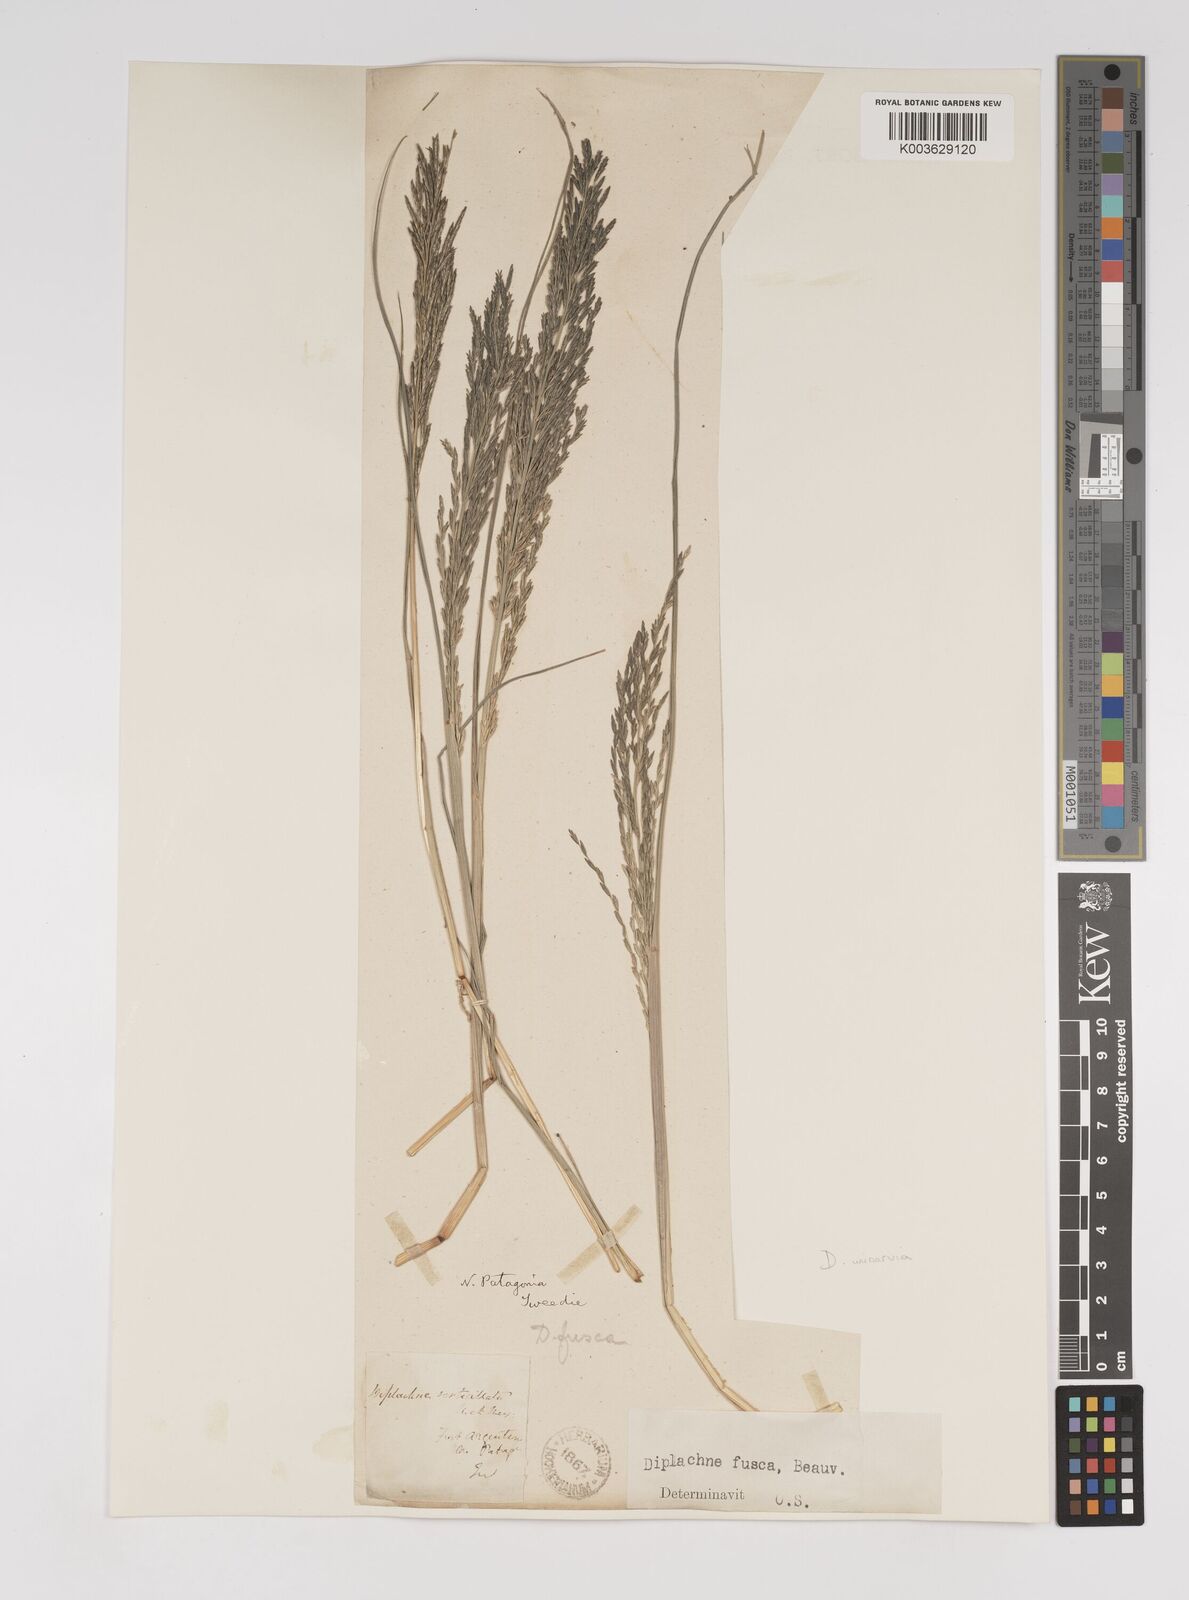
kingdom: Plantae
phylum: Tracheophyta
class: Liliopsida
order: Poales
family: Poaceae
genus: Diplachne
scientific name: Diplachne fusca
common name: Brown beetle grass
